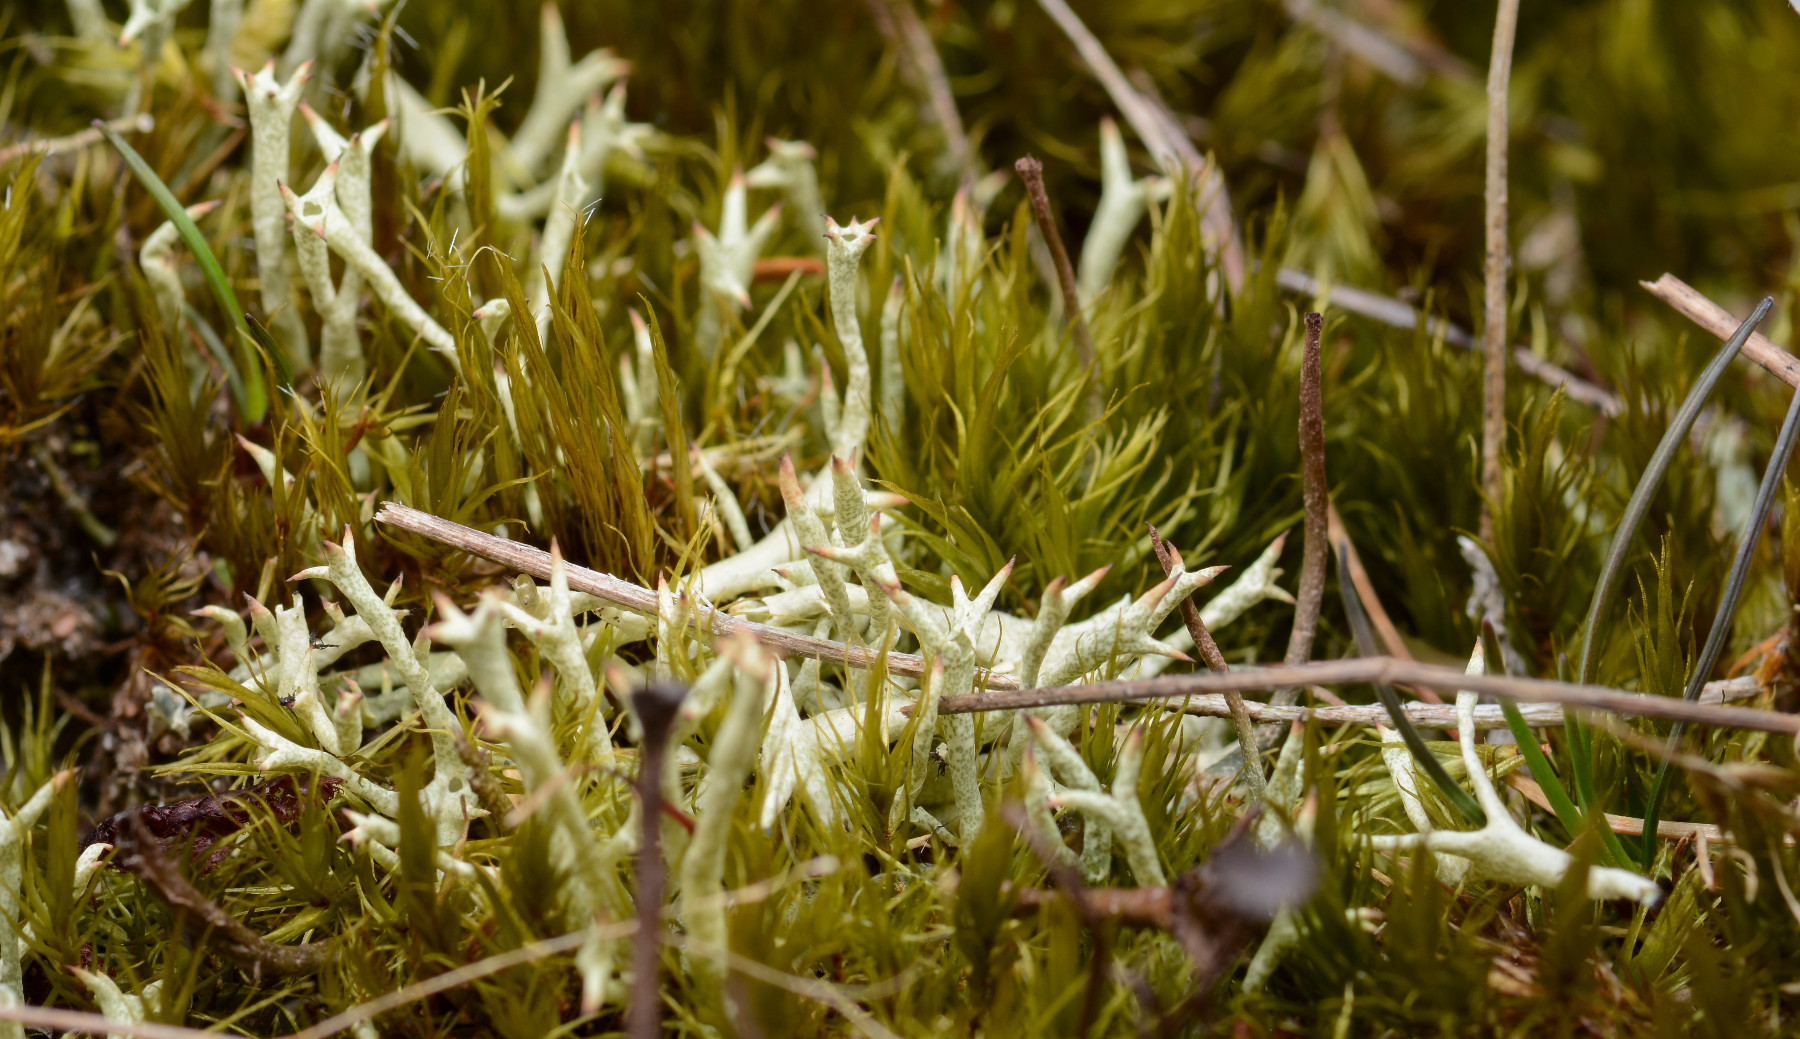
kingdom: Fungi
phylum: Ascomycota
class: Lecanoromycetes
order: Lecanorales
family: Cladoniaceae
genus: Cladonia
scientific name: Cladonia uncialis
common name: pigget bægerlav
